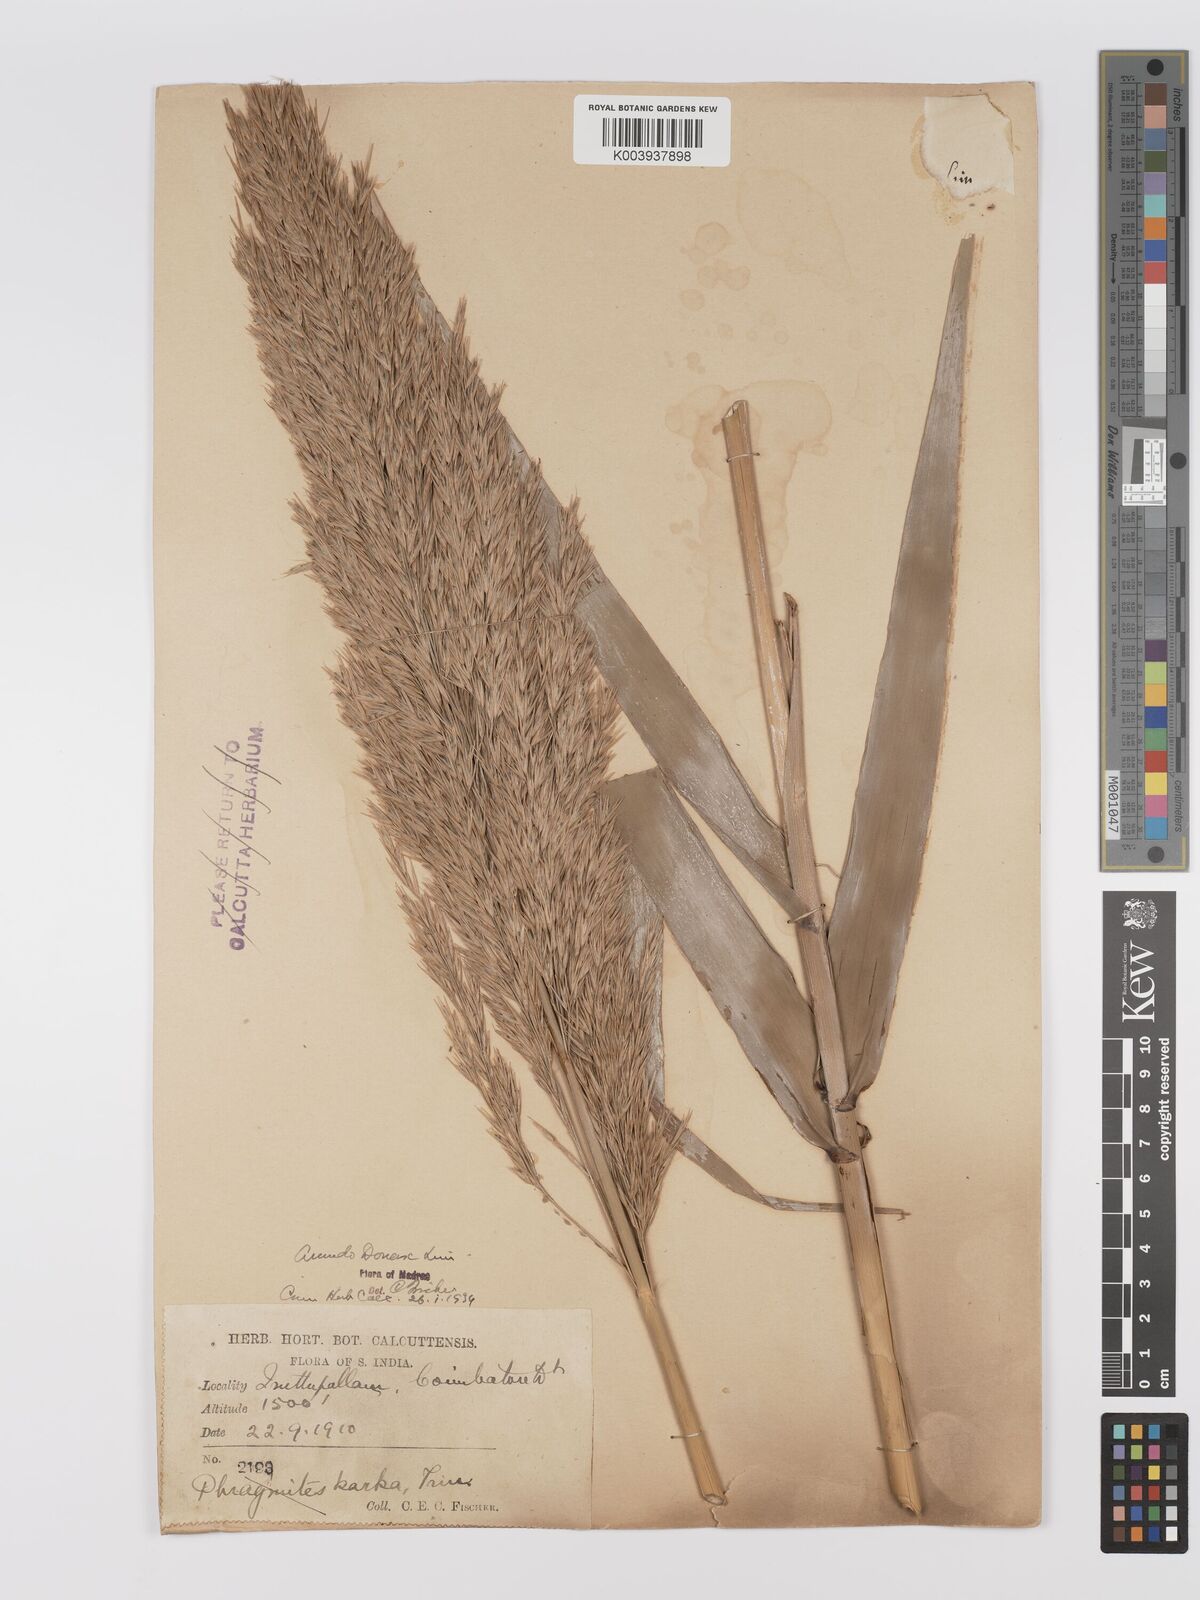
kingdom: Plantae
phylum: Tracheophyta
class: Liliopsida
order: Poales
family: Poaceae
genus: Arundo
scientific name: Arundo
